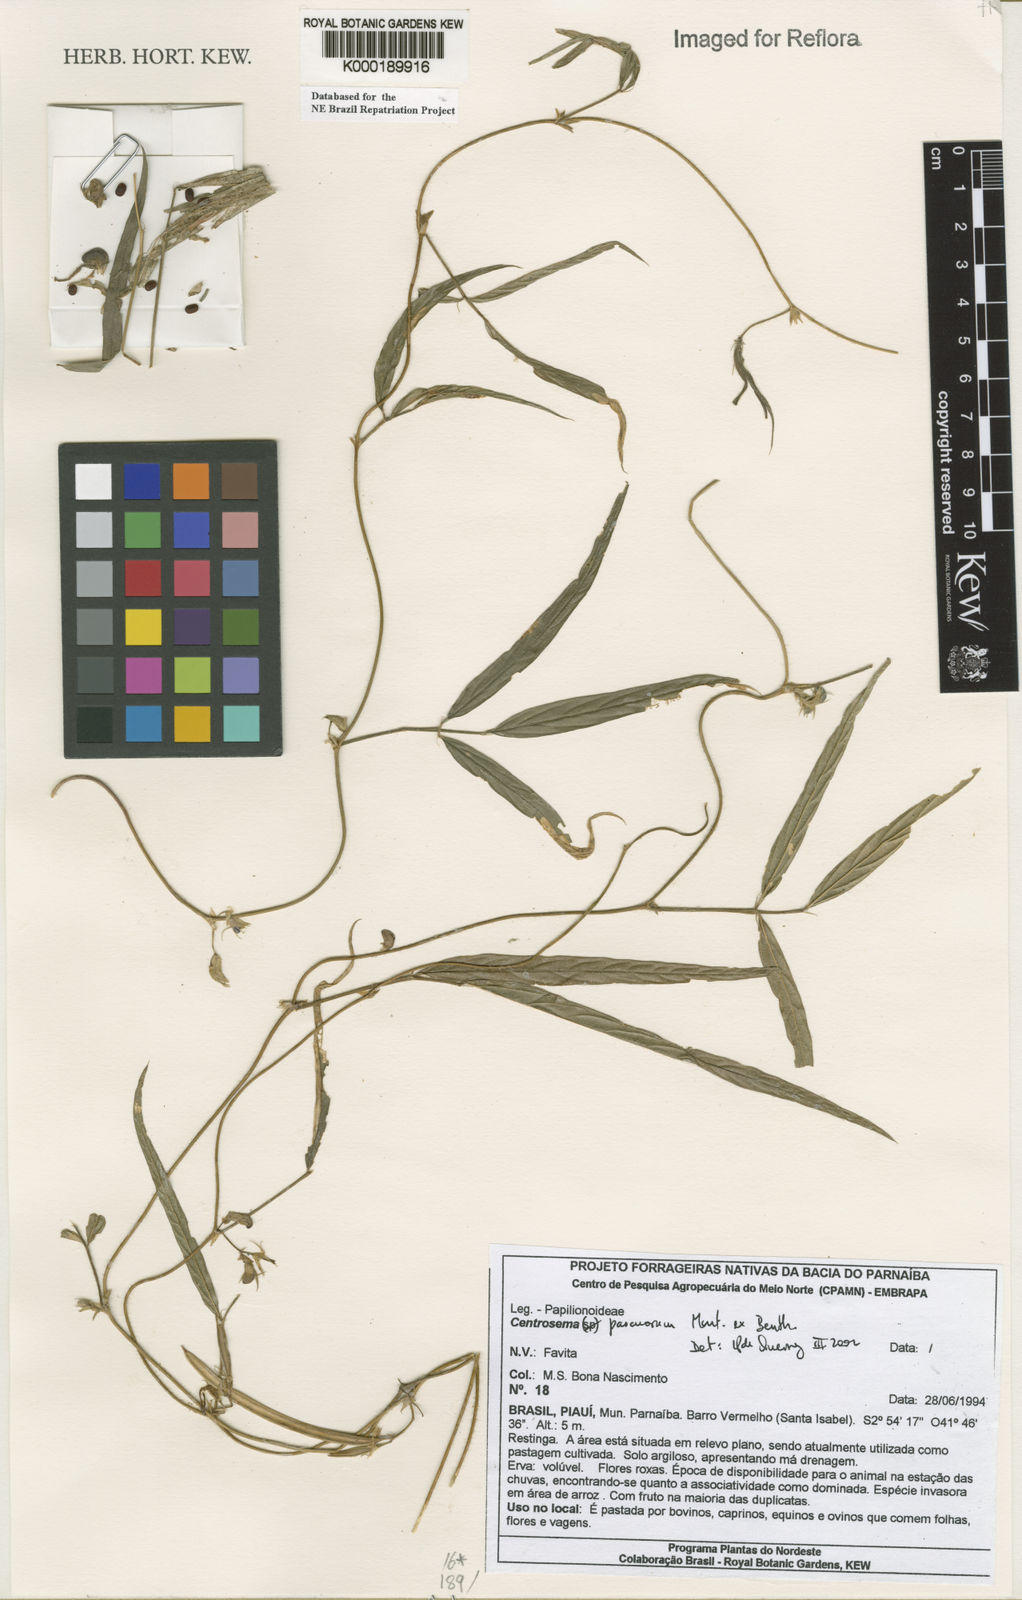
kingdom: Plantae
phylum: Tracheophyta
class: Magnoliopsida
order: Fabales
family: Fabaceae
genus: Centrosema
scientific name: Centrosema pascuorum
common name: Centurion
